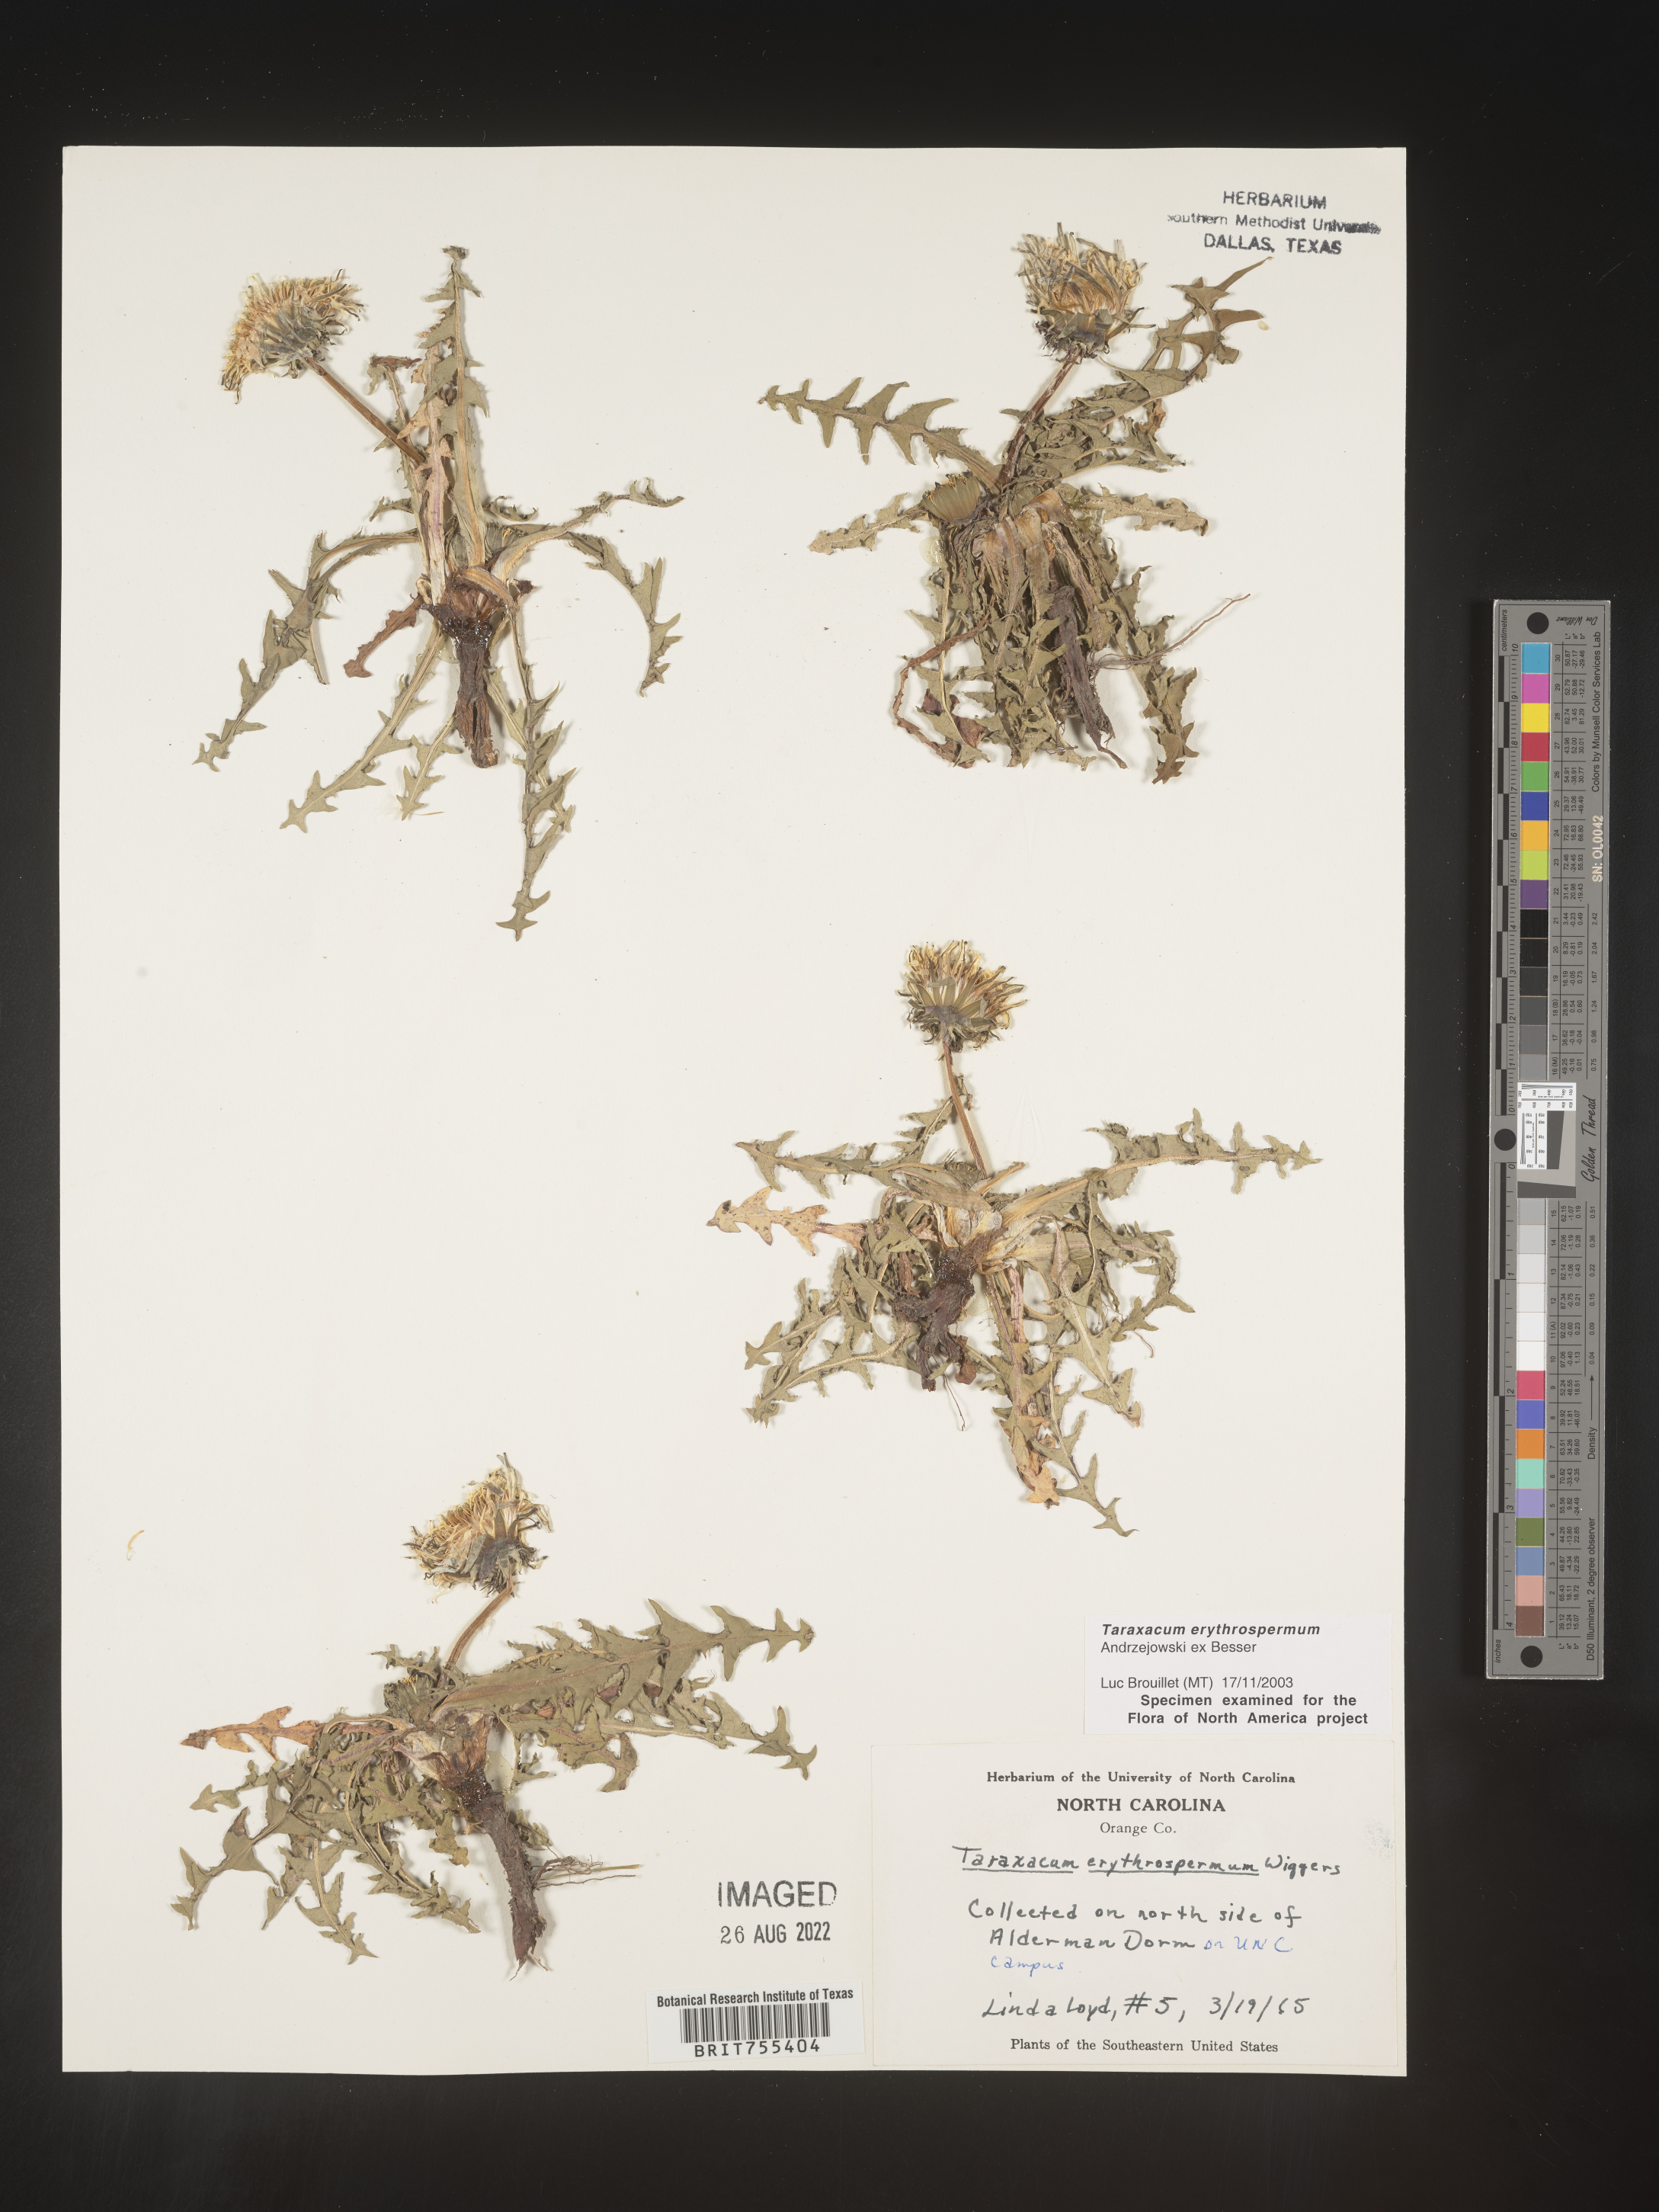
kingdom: Plantae
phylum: Tracheophyta
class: Magnoliopsida
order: Asterales
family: Asteraceae
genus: Taraxacum
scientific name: Taraxacum erythrospermum
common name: Rock dandelion
